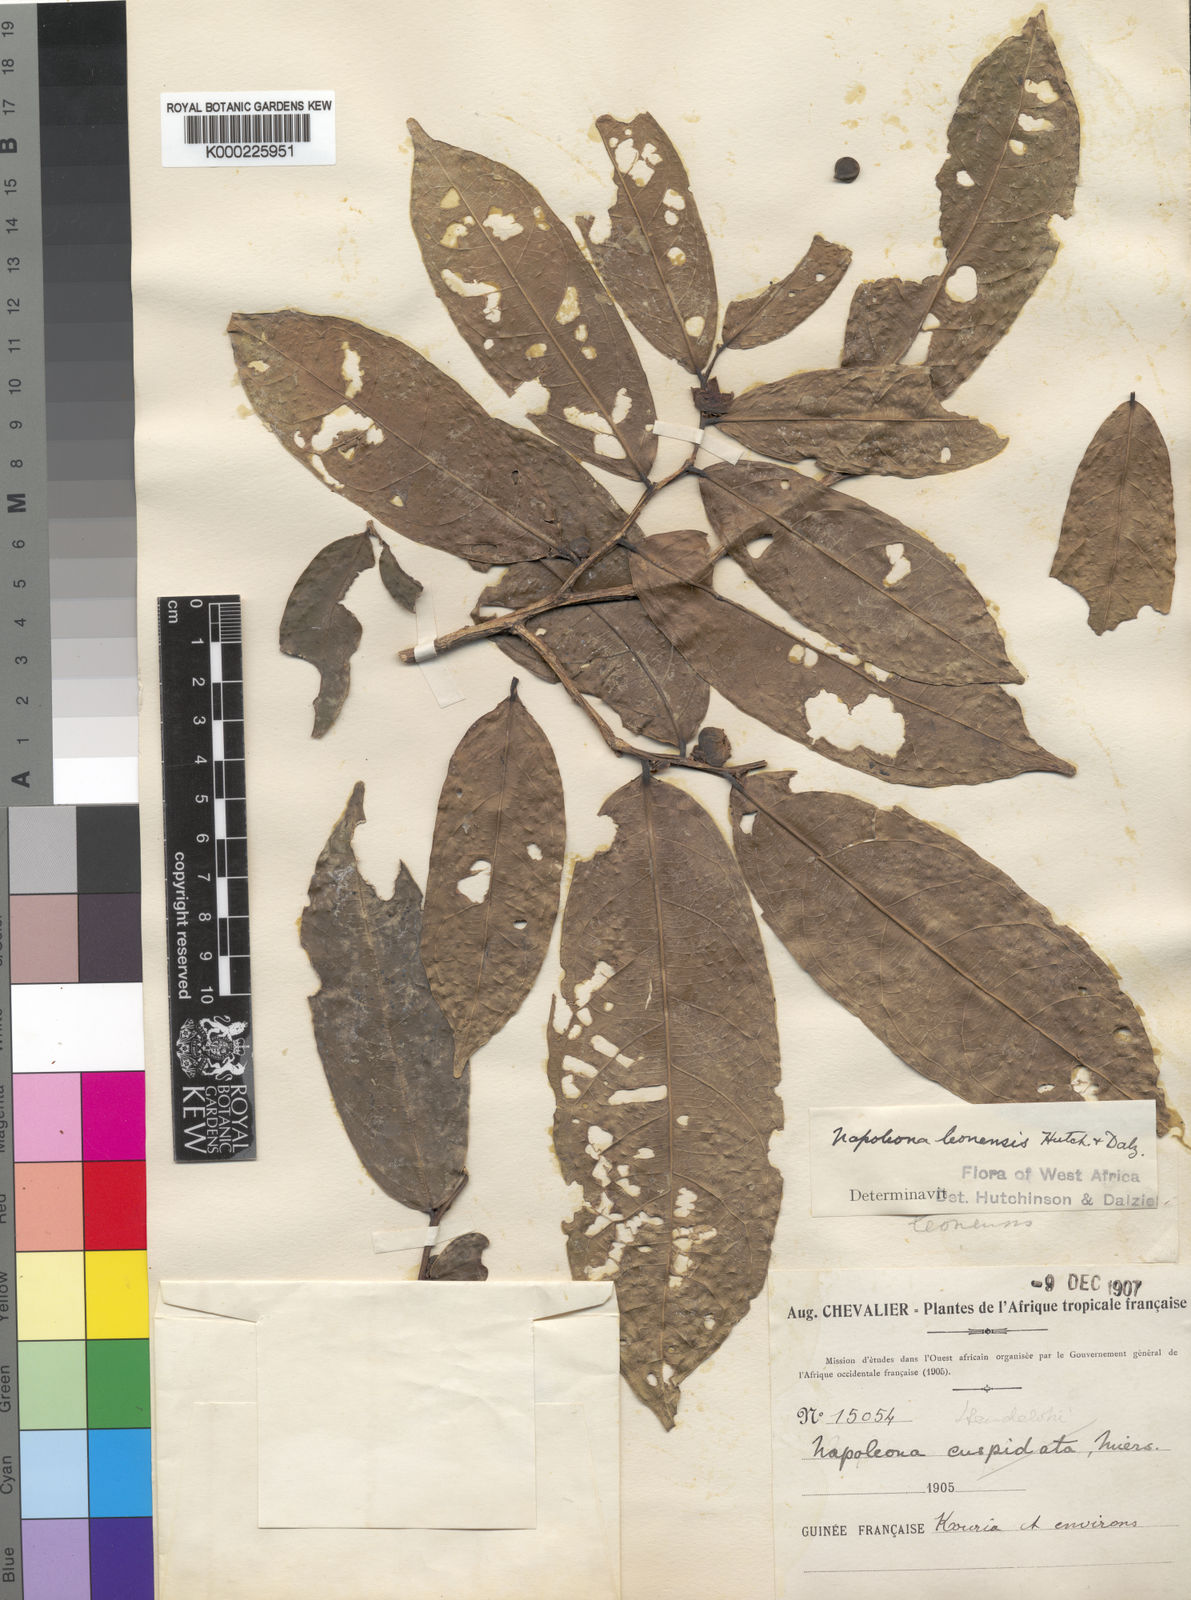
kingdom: Plantae
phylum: Tracheophyta
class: Magnoliopsida
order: Ericales
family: Lecythidaceae
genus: Napoleonaea
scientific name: Napoleonaea leonensis
